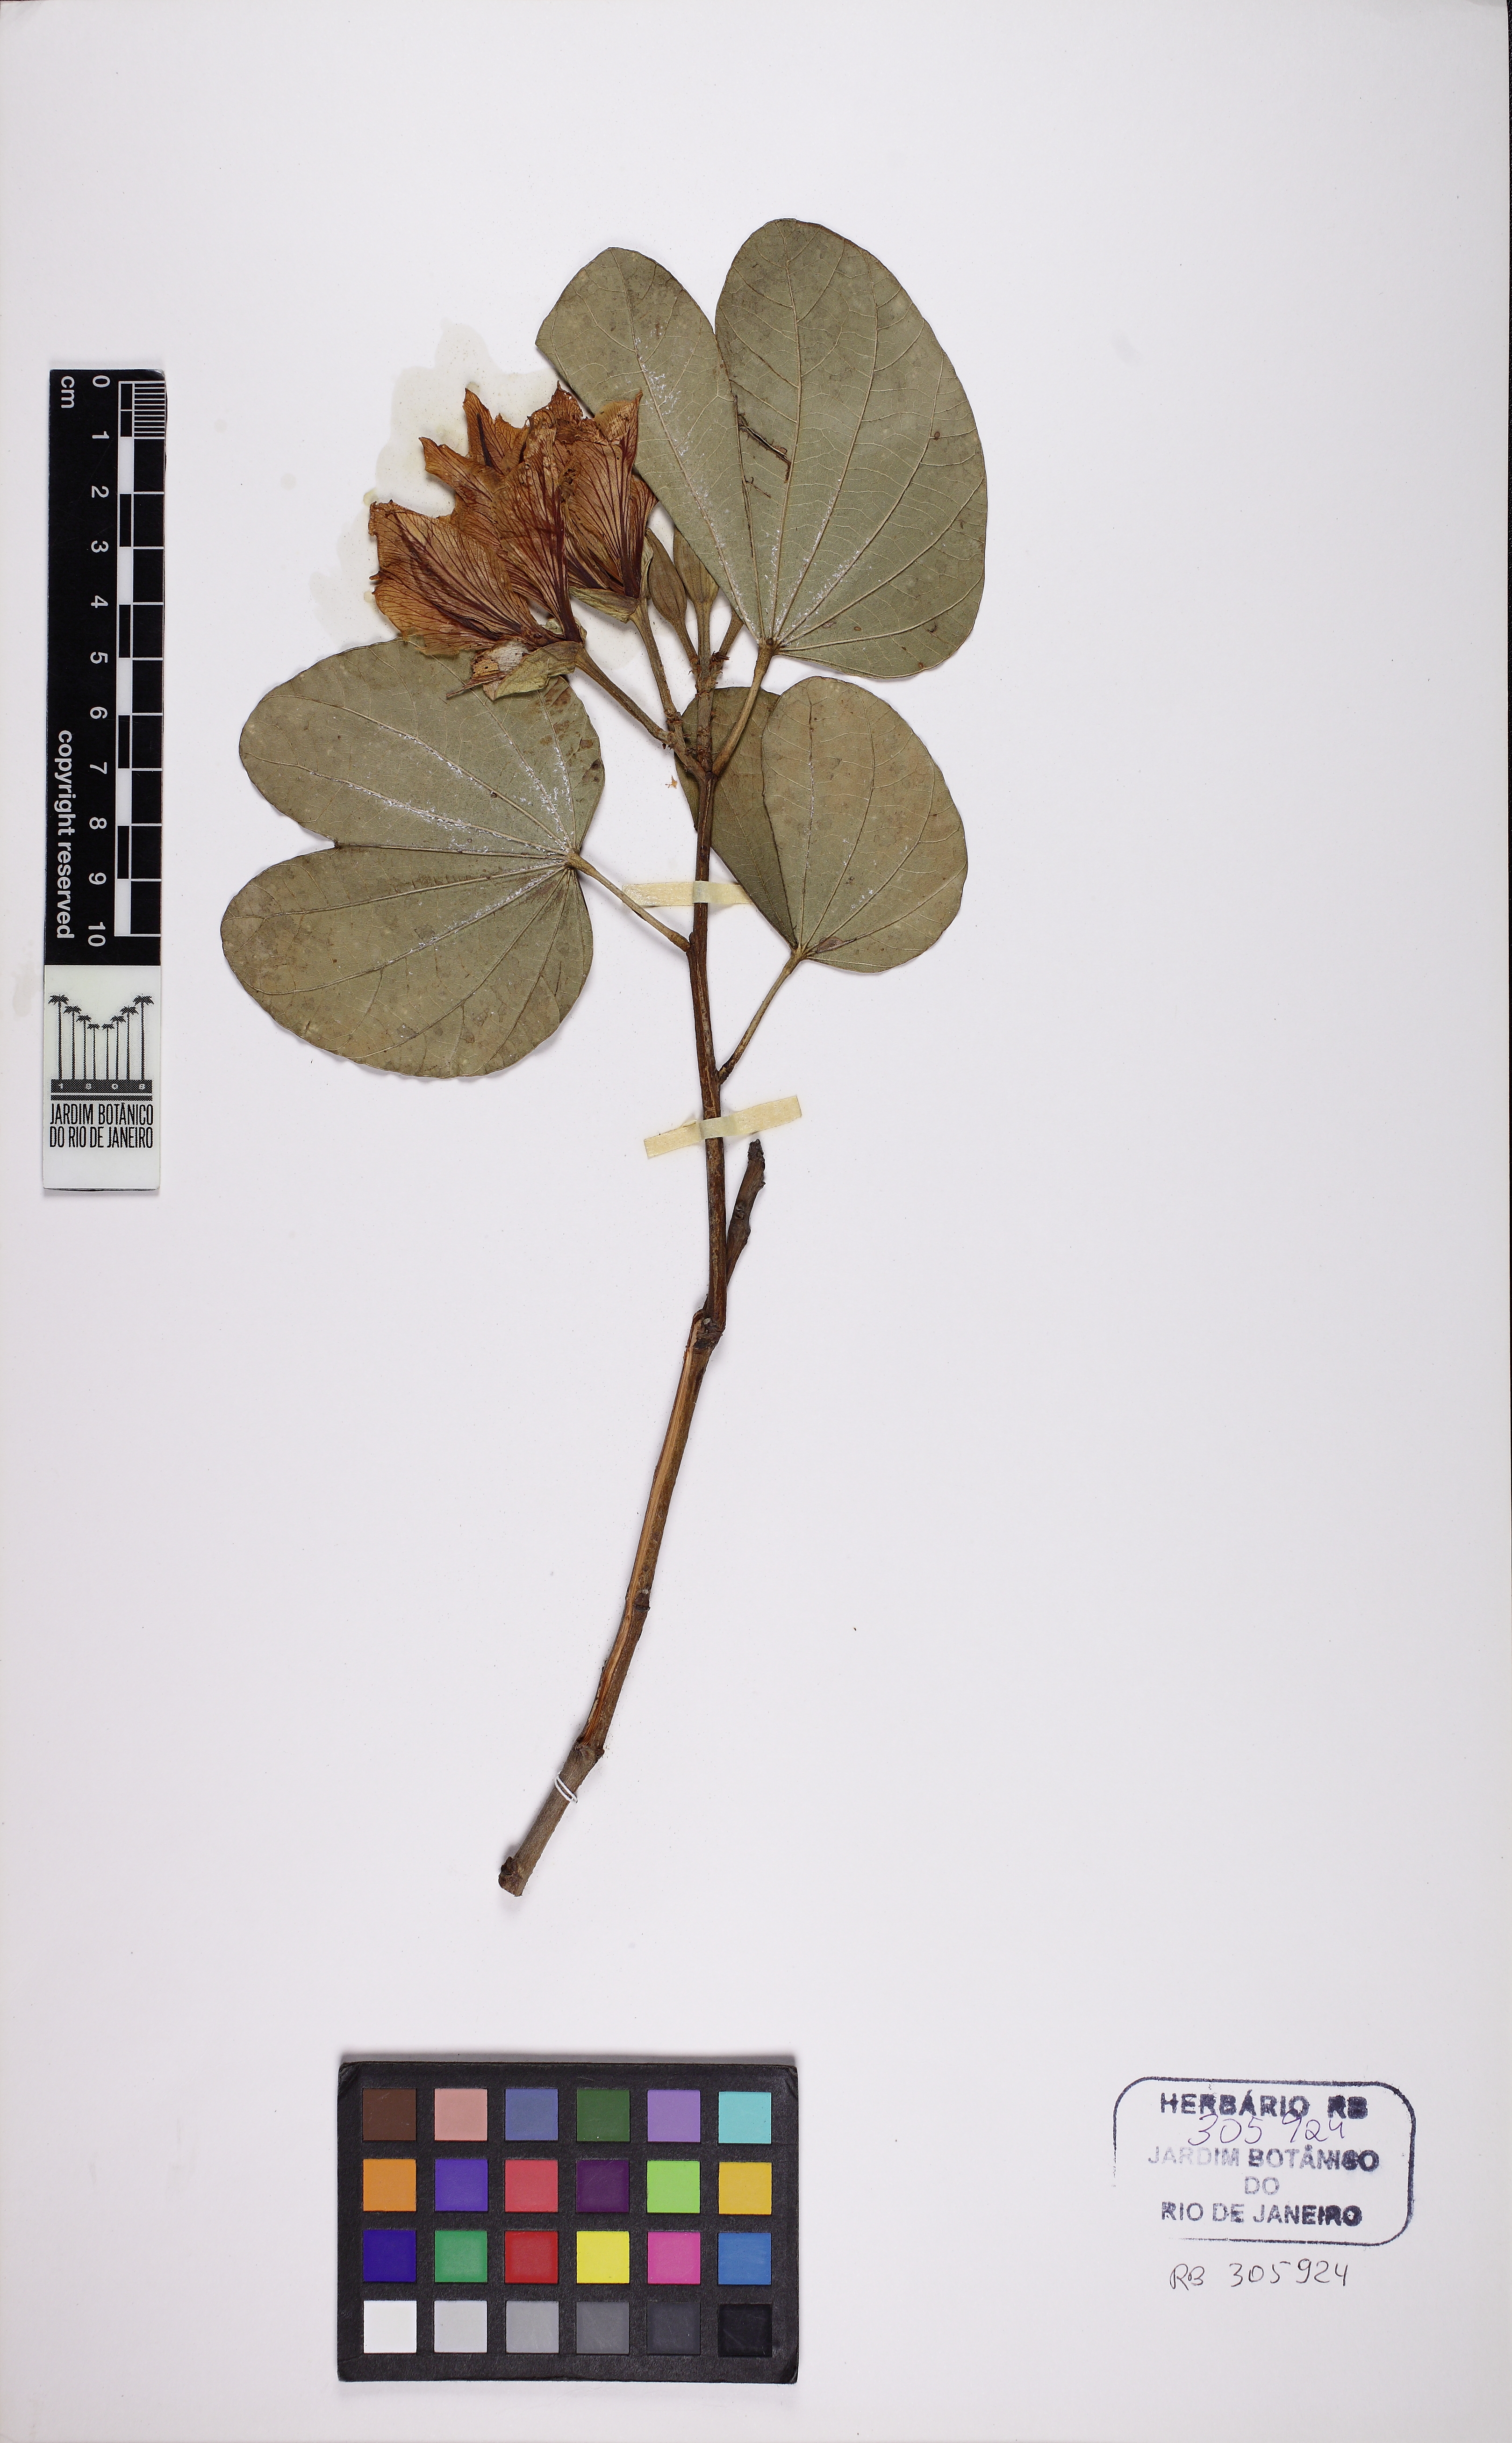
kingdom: Plantae
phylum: Tracheophyta
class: Magnoliopsida
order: Fabales
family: Fabaceae
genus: Bauhinia
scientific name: Bauhinia variegata
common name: Mountain ebony
